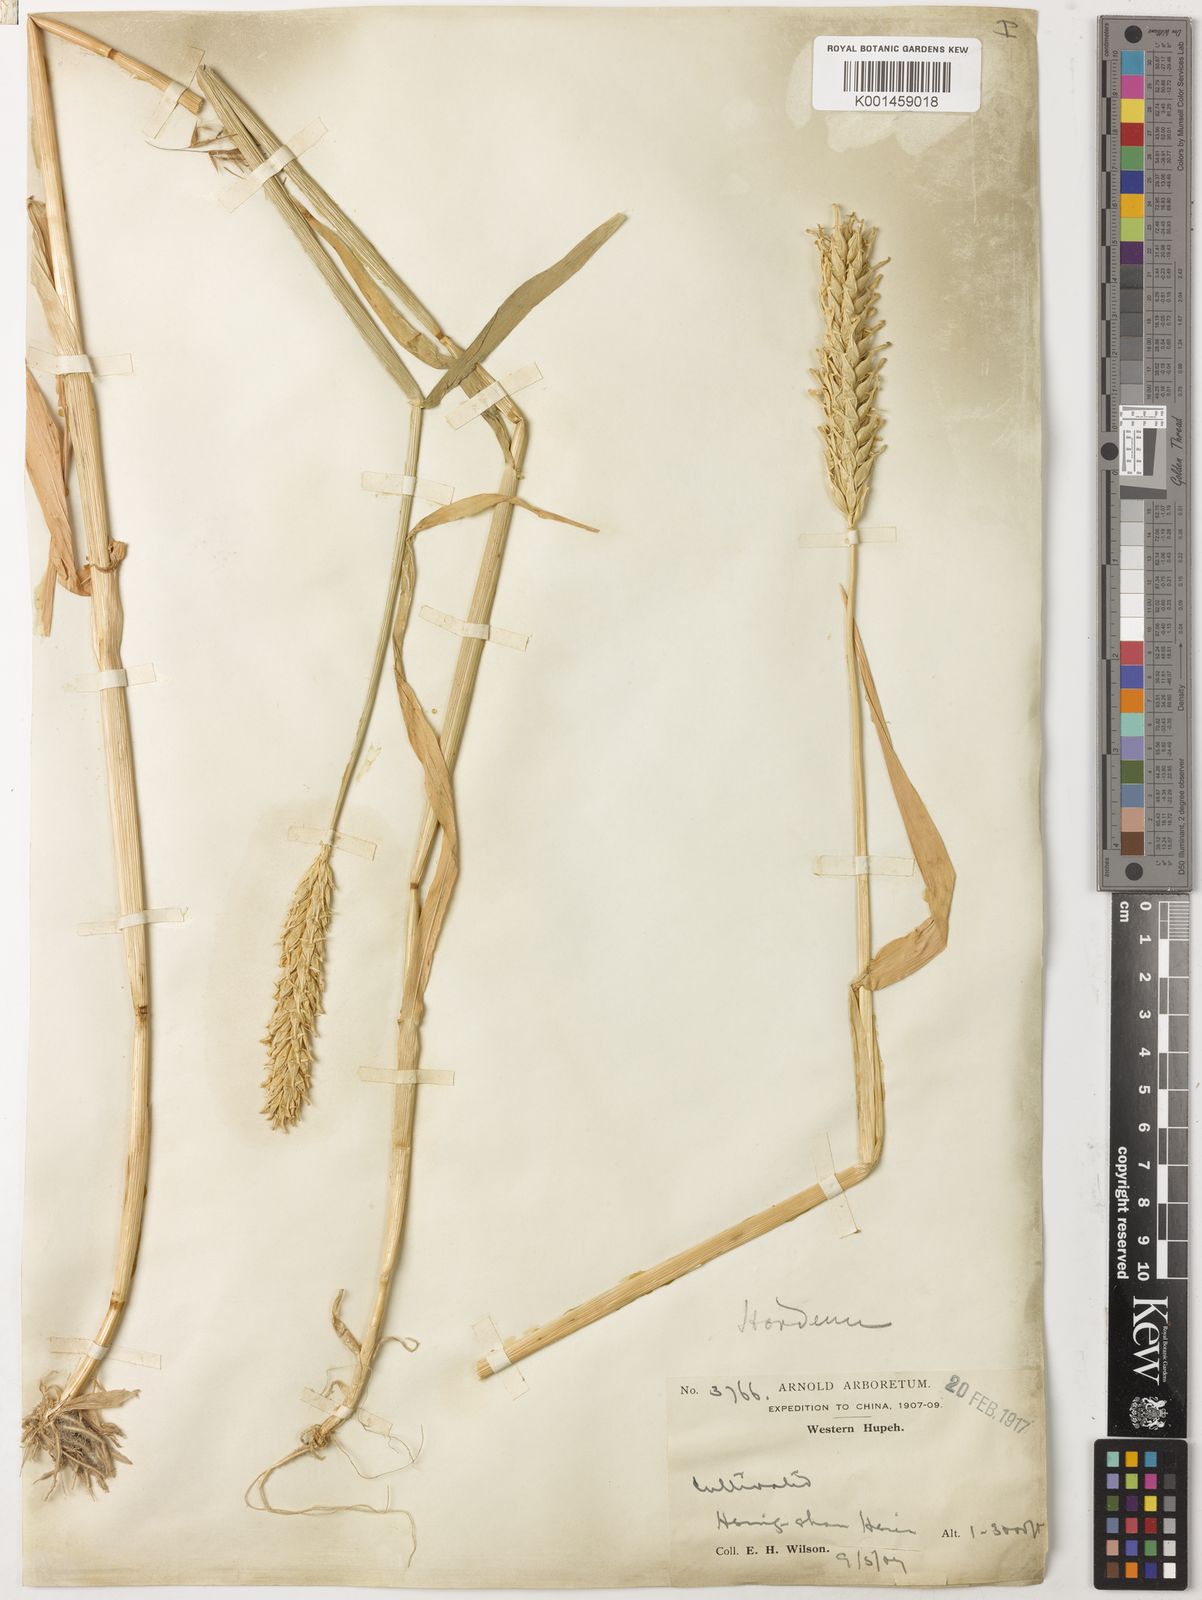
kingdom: Plantae
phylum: Tracheophyta
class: Liliopsida
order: Poales
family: Poaceae
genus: Hordeum
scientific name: Hordeum vulgare
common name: Common barley
